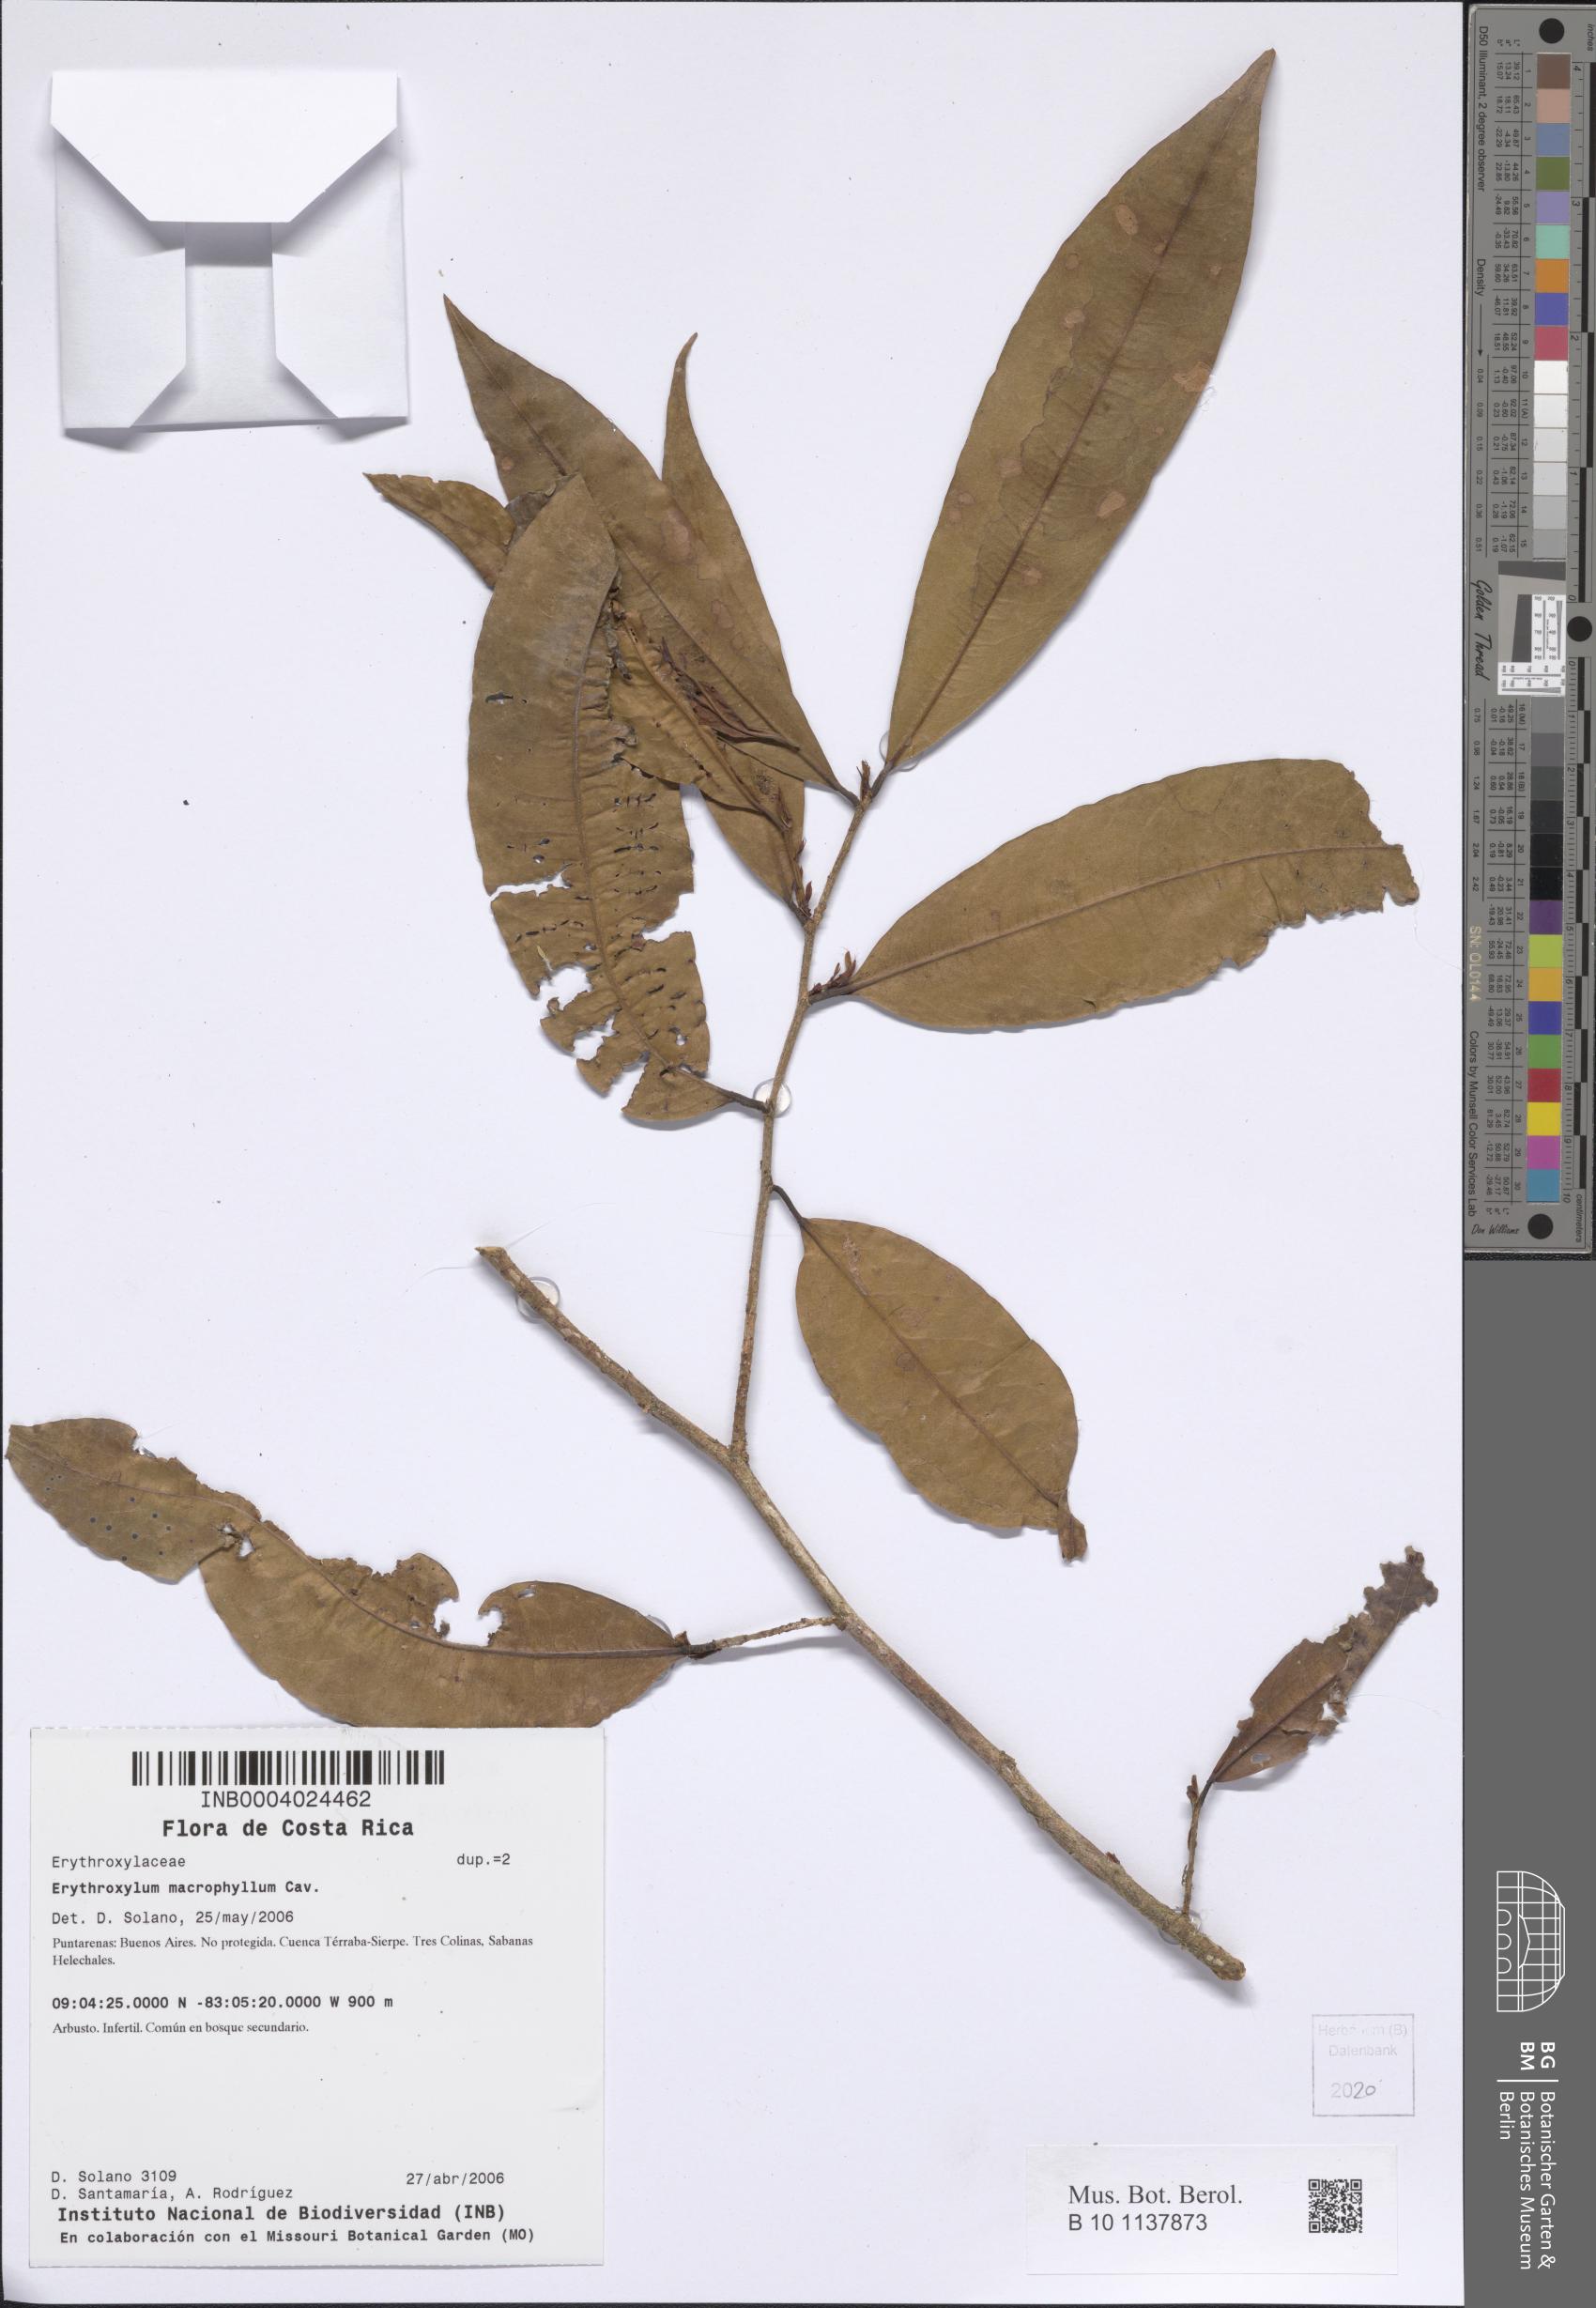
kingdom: Plantae
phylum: Tracheophyta
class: Magnoliopsida
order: Malpighiales
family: Erythroxylaceae
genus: Erythroxylum
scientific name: Erythroxylum macrophyllum
